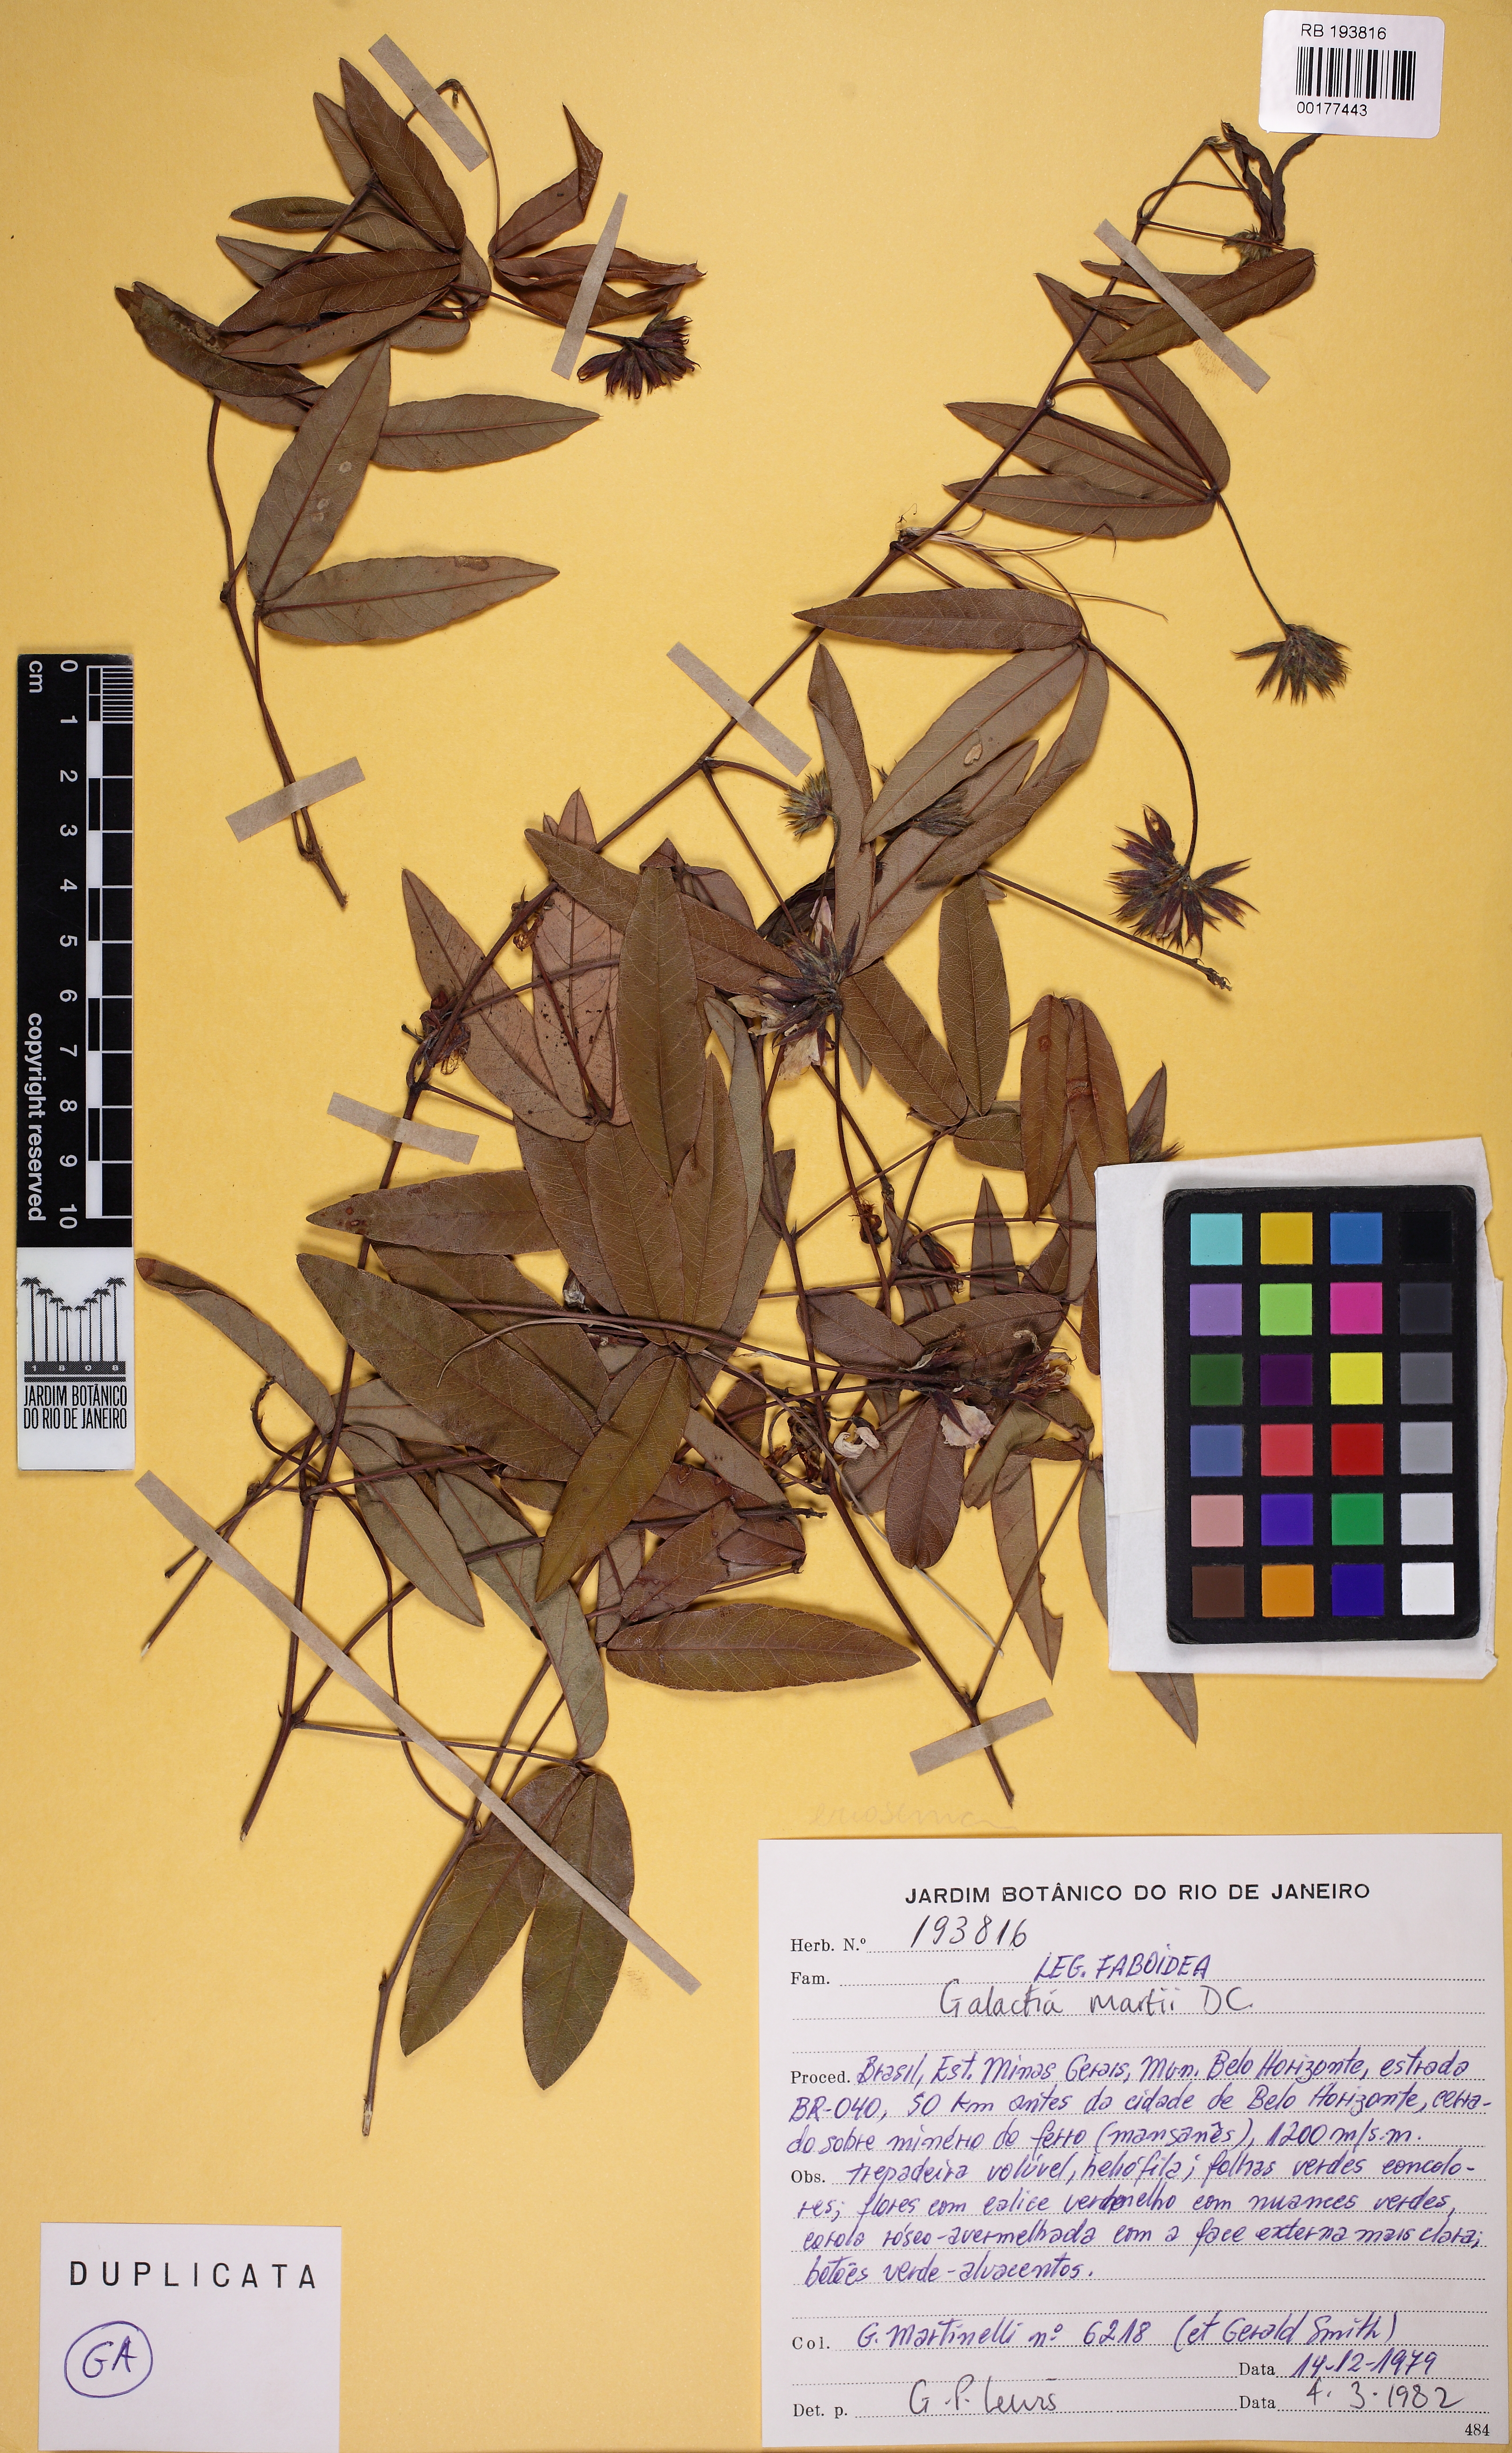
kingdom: Plantae
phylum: Tracheophyta
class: Magnoliopsida
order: Fabales
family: Fabaceae
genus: Betencourtia
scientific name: Betencourtia martii
